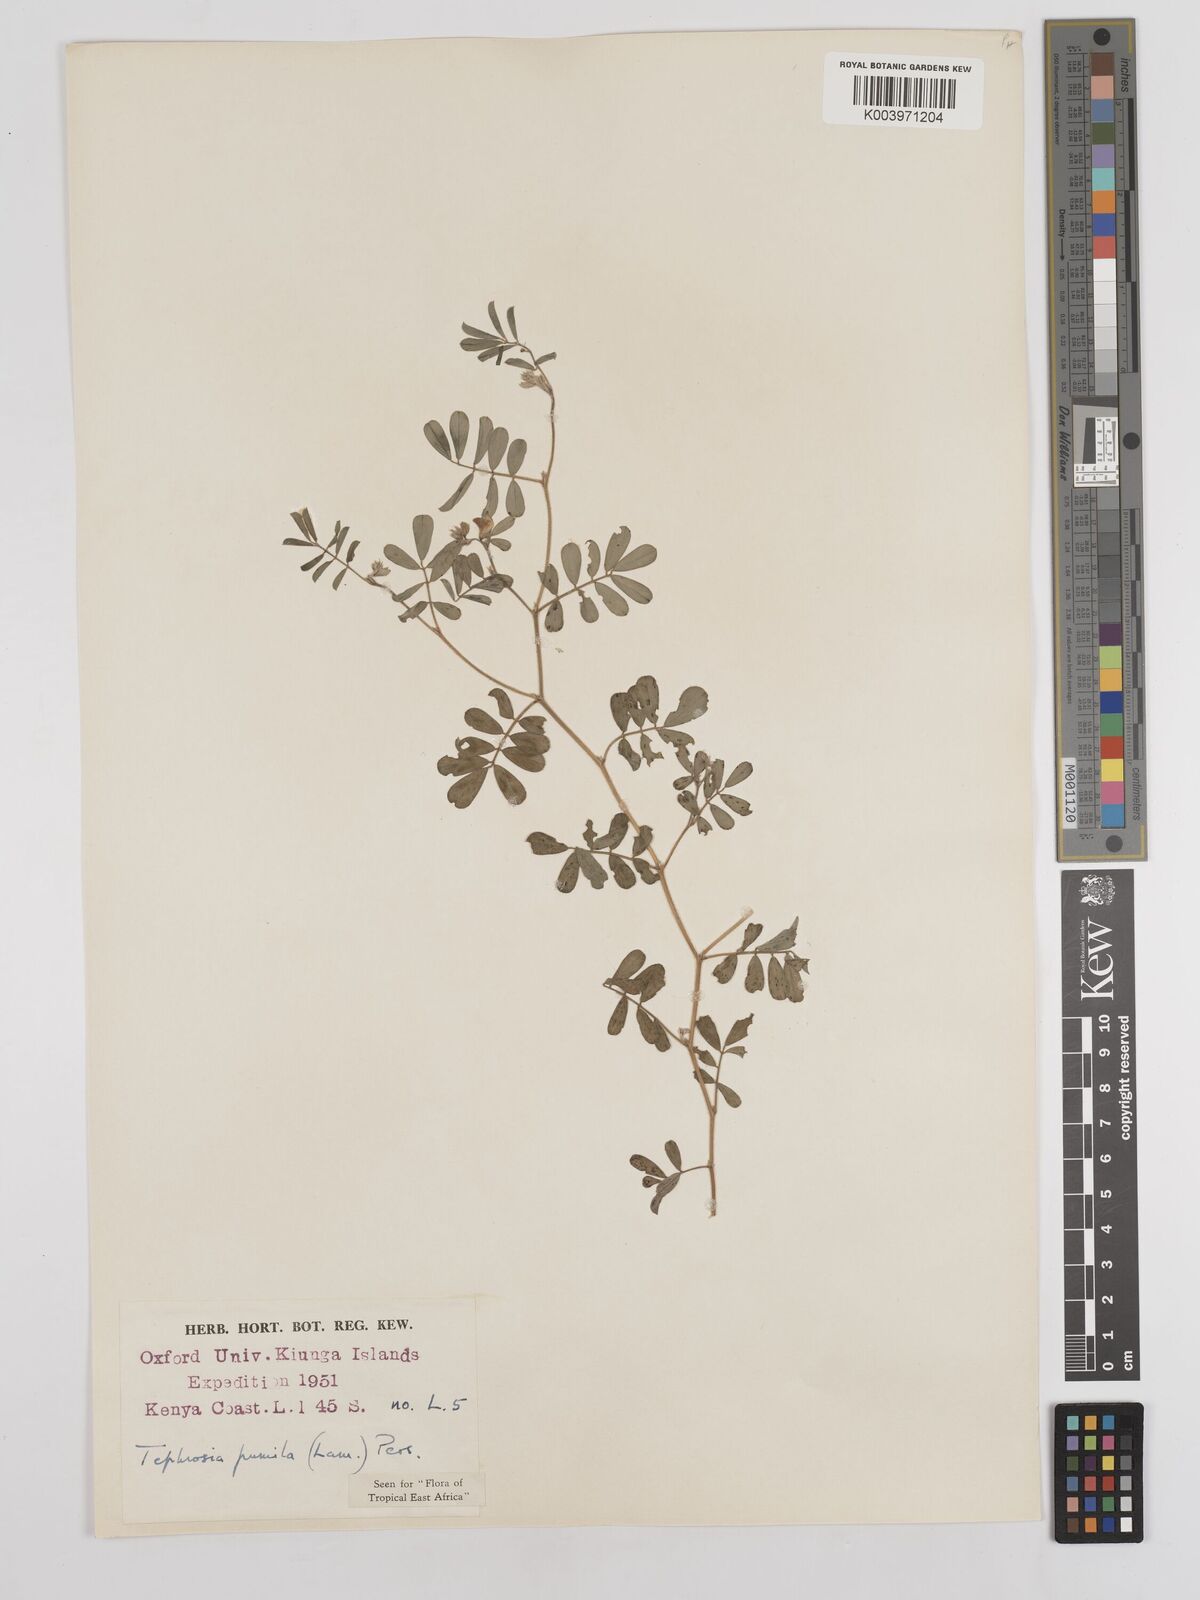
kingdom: Plantae
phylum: Tracheophyta
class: Magnoliopsida
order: Fabales
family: Fabaceae
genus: Tephrosia
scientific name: Tephrosia pumila
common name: Indigo sauvage
